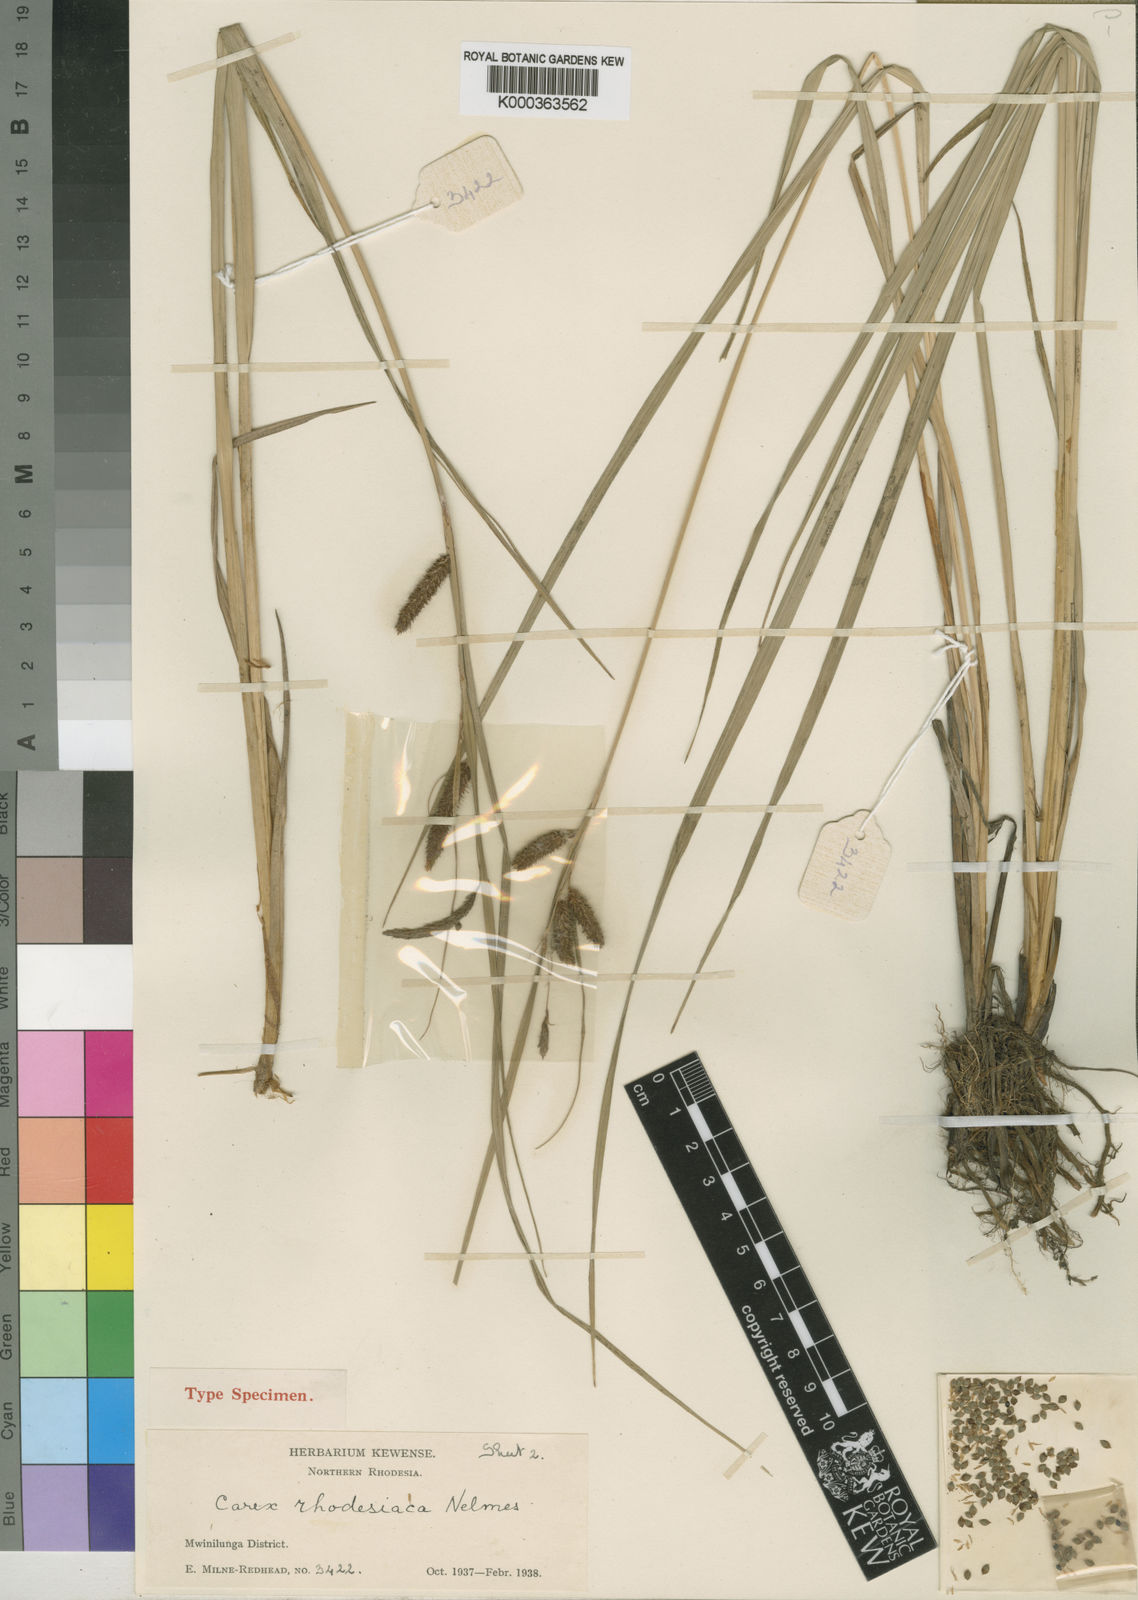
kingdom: Plantae
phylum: Tracheophyta
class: Liliopsida
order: Poales
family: Cyperaceae
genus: Carex
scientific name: Carex rhodesiaca
